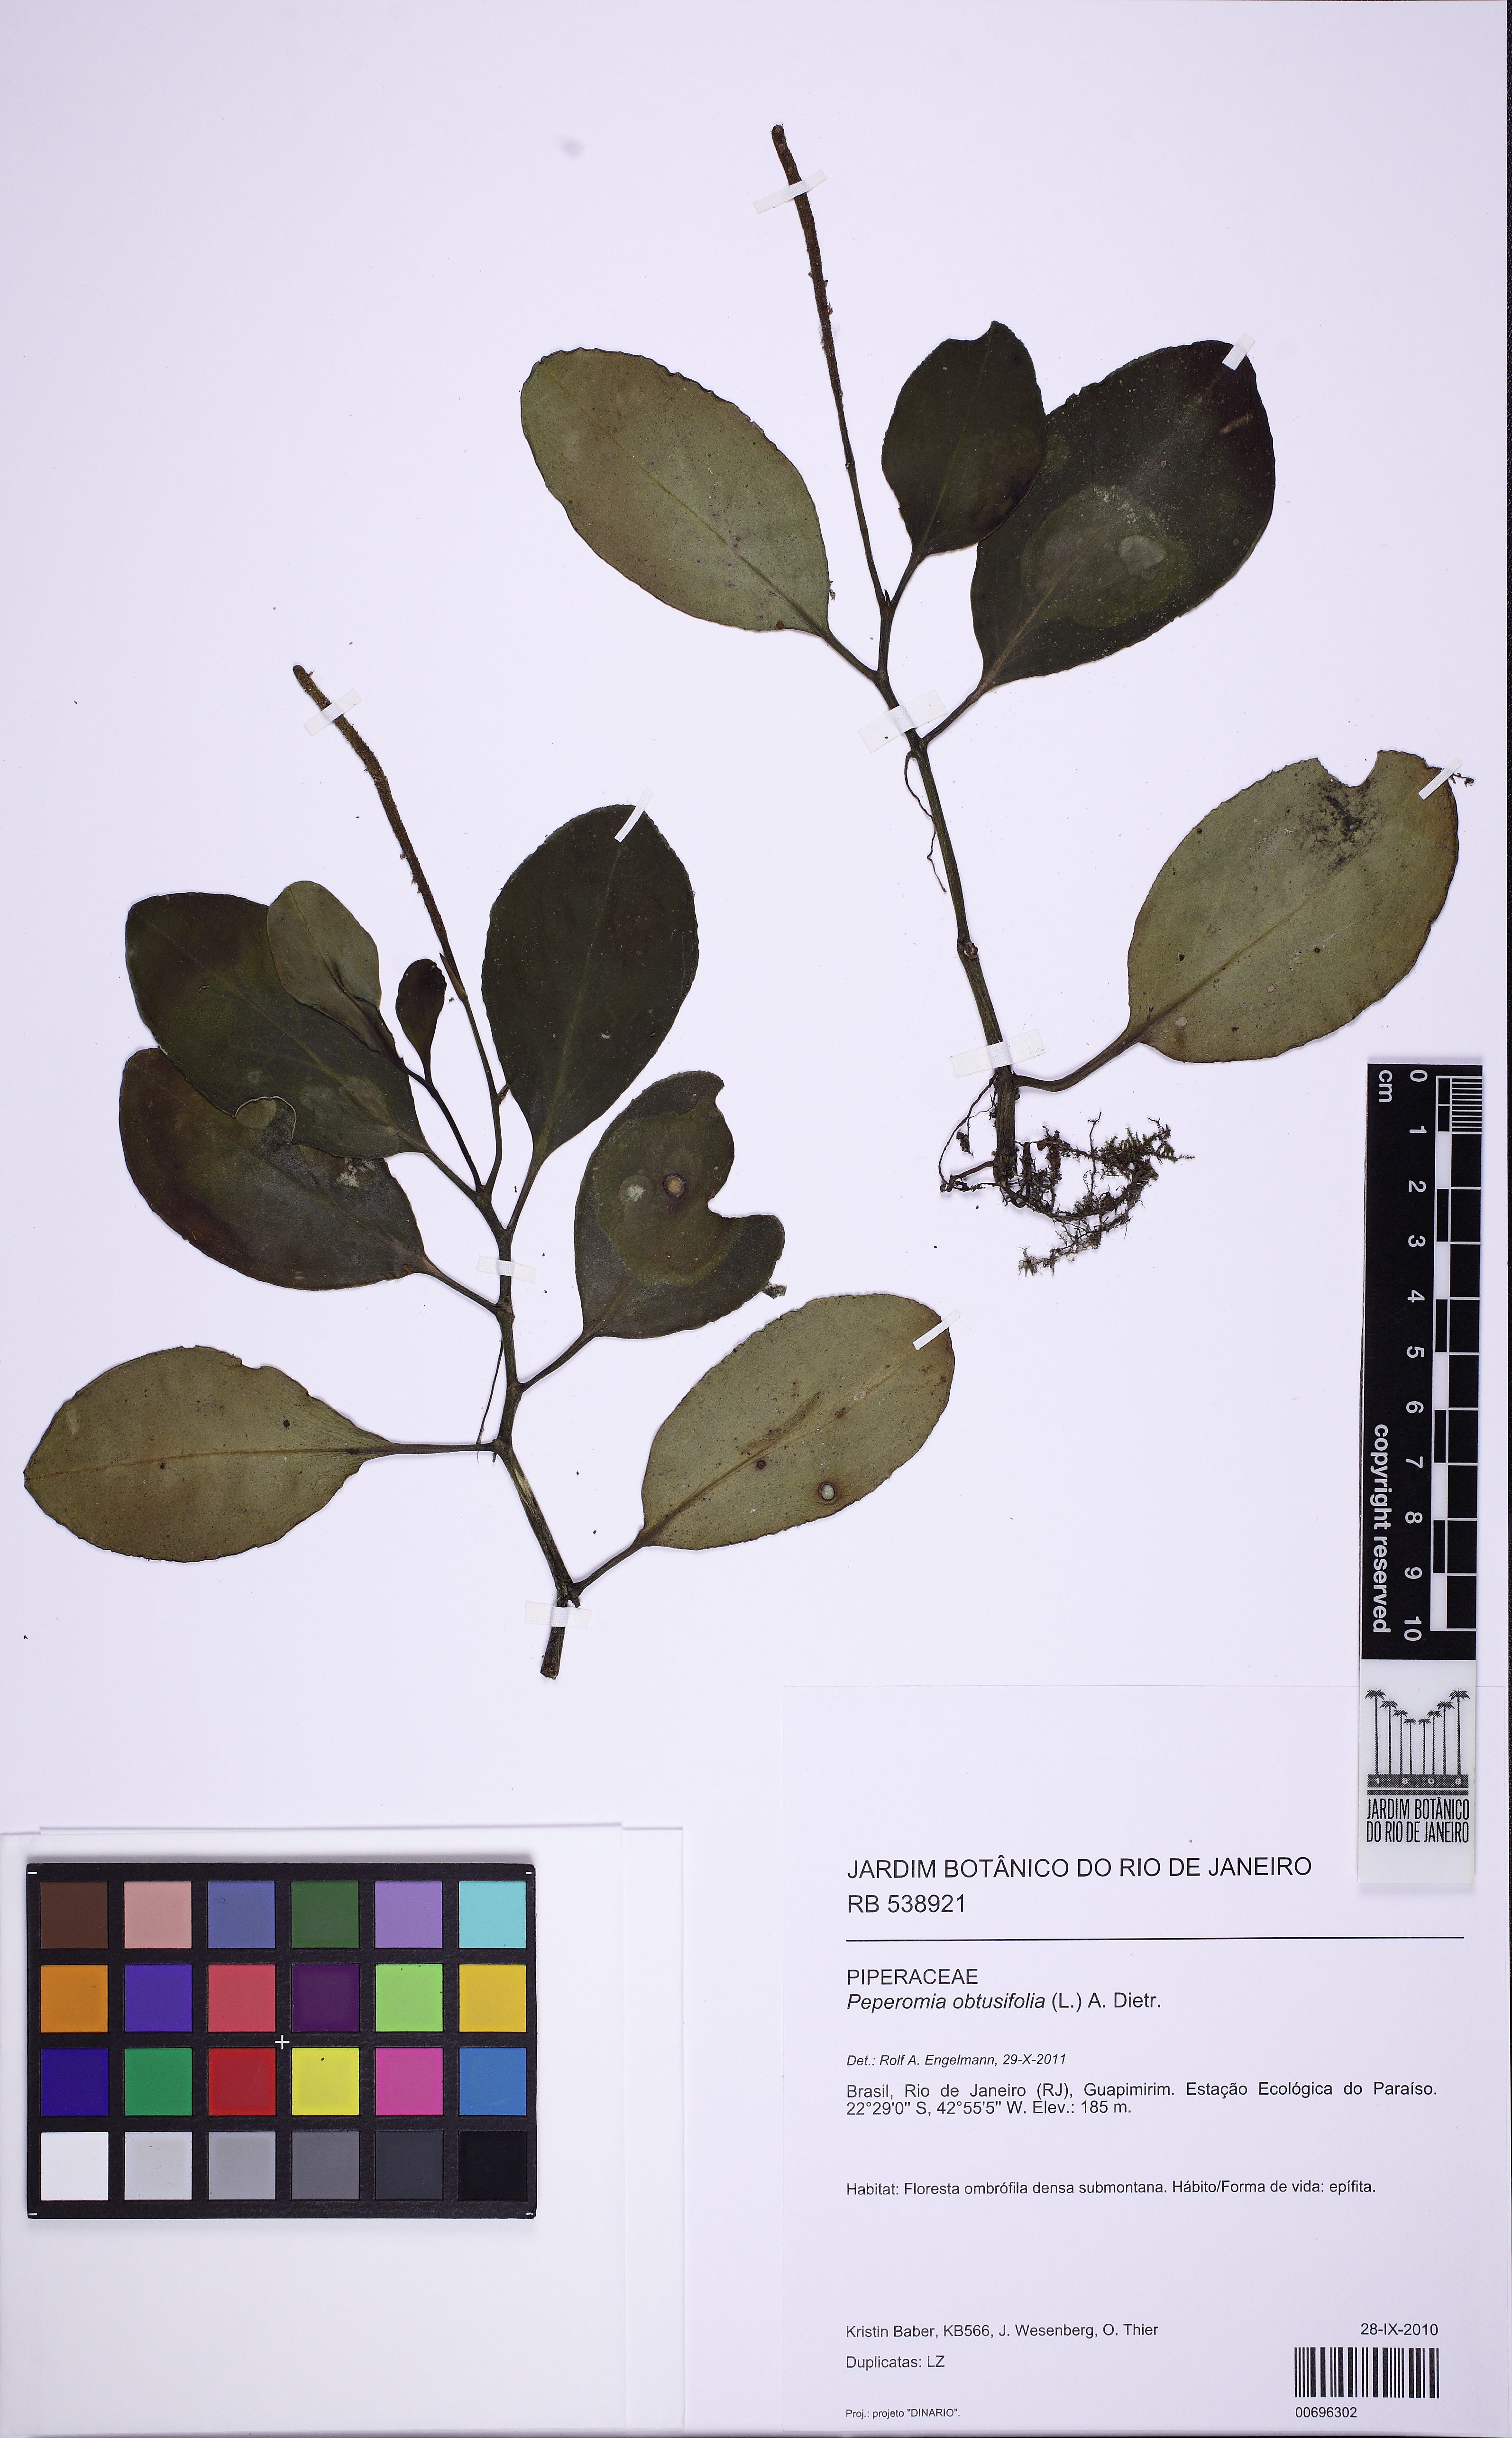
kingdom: Plantae
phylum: Tracheophyta
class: Magnoliopsida
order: Piperales
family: Piperaceae
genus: Peperomia
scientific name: Peperomia obtusifolia
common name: Baby rubberplant
